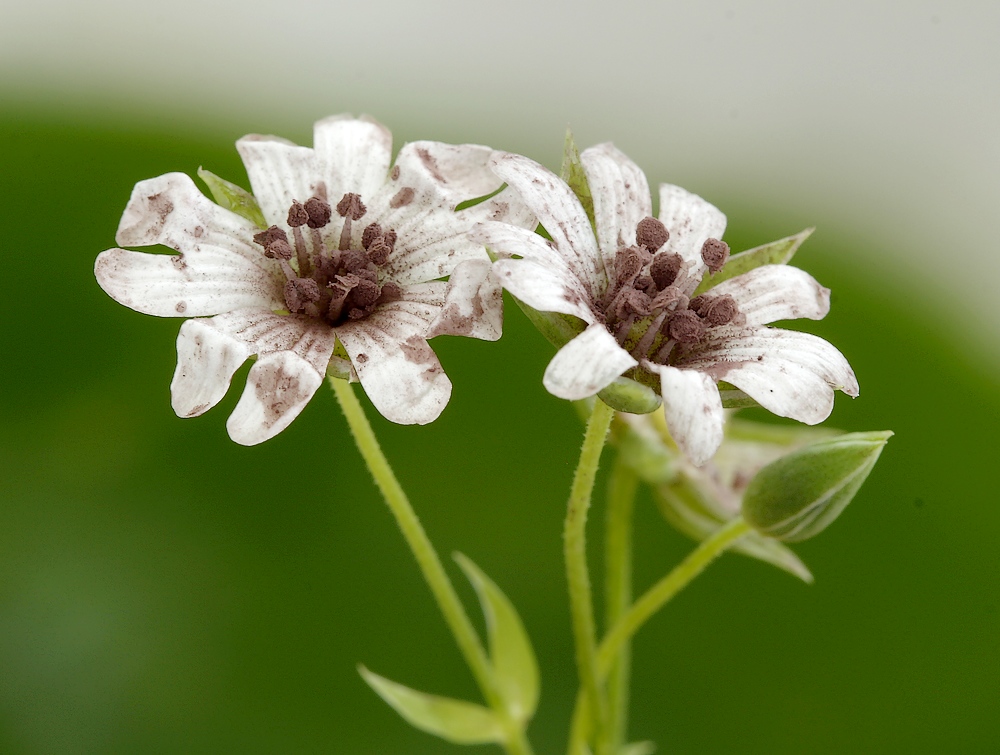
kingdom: Fungi
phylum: Basidiomycota
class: Microbotryomycetes
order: Microbotryales
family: Microbotryaceae
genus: Microbotryum
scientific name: Microbotryum stellariae
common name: fladstjerne-støvbladrust
